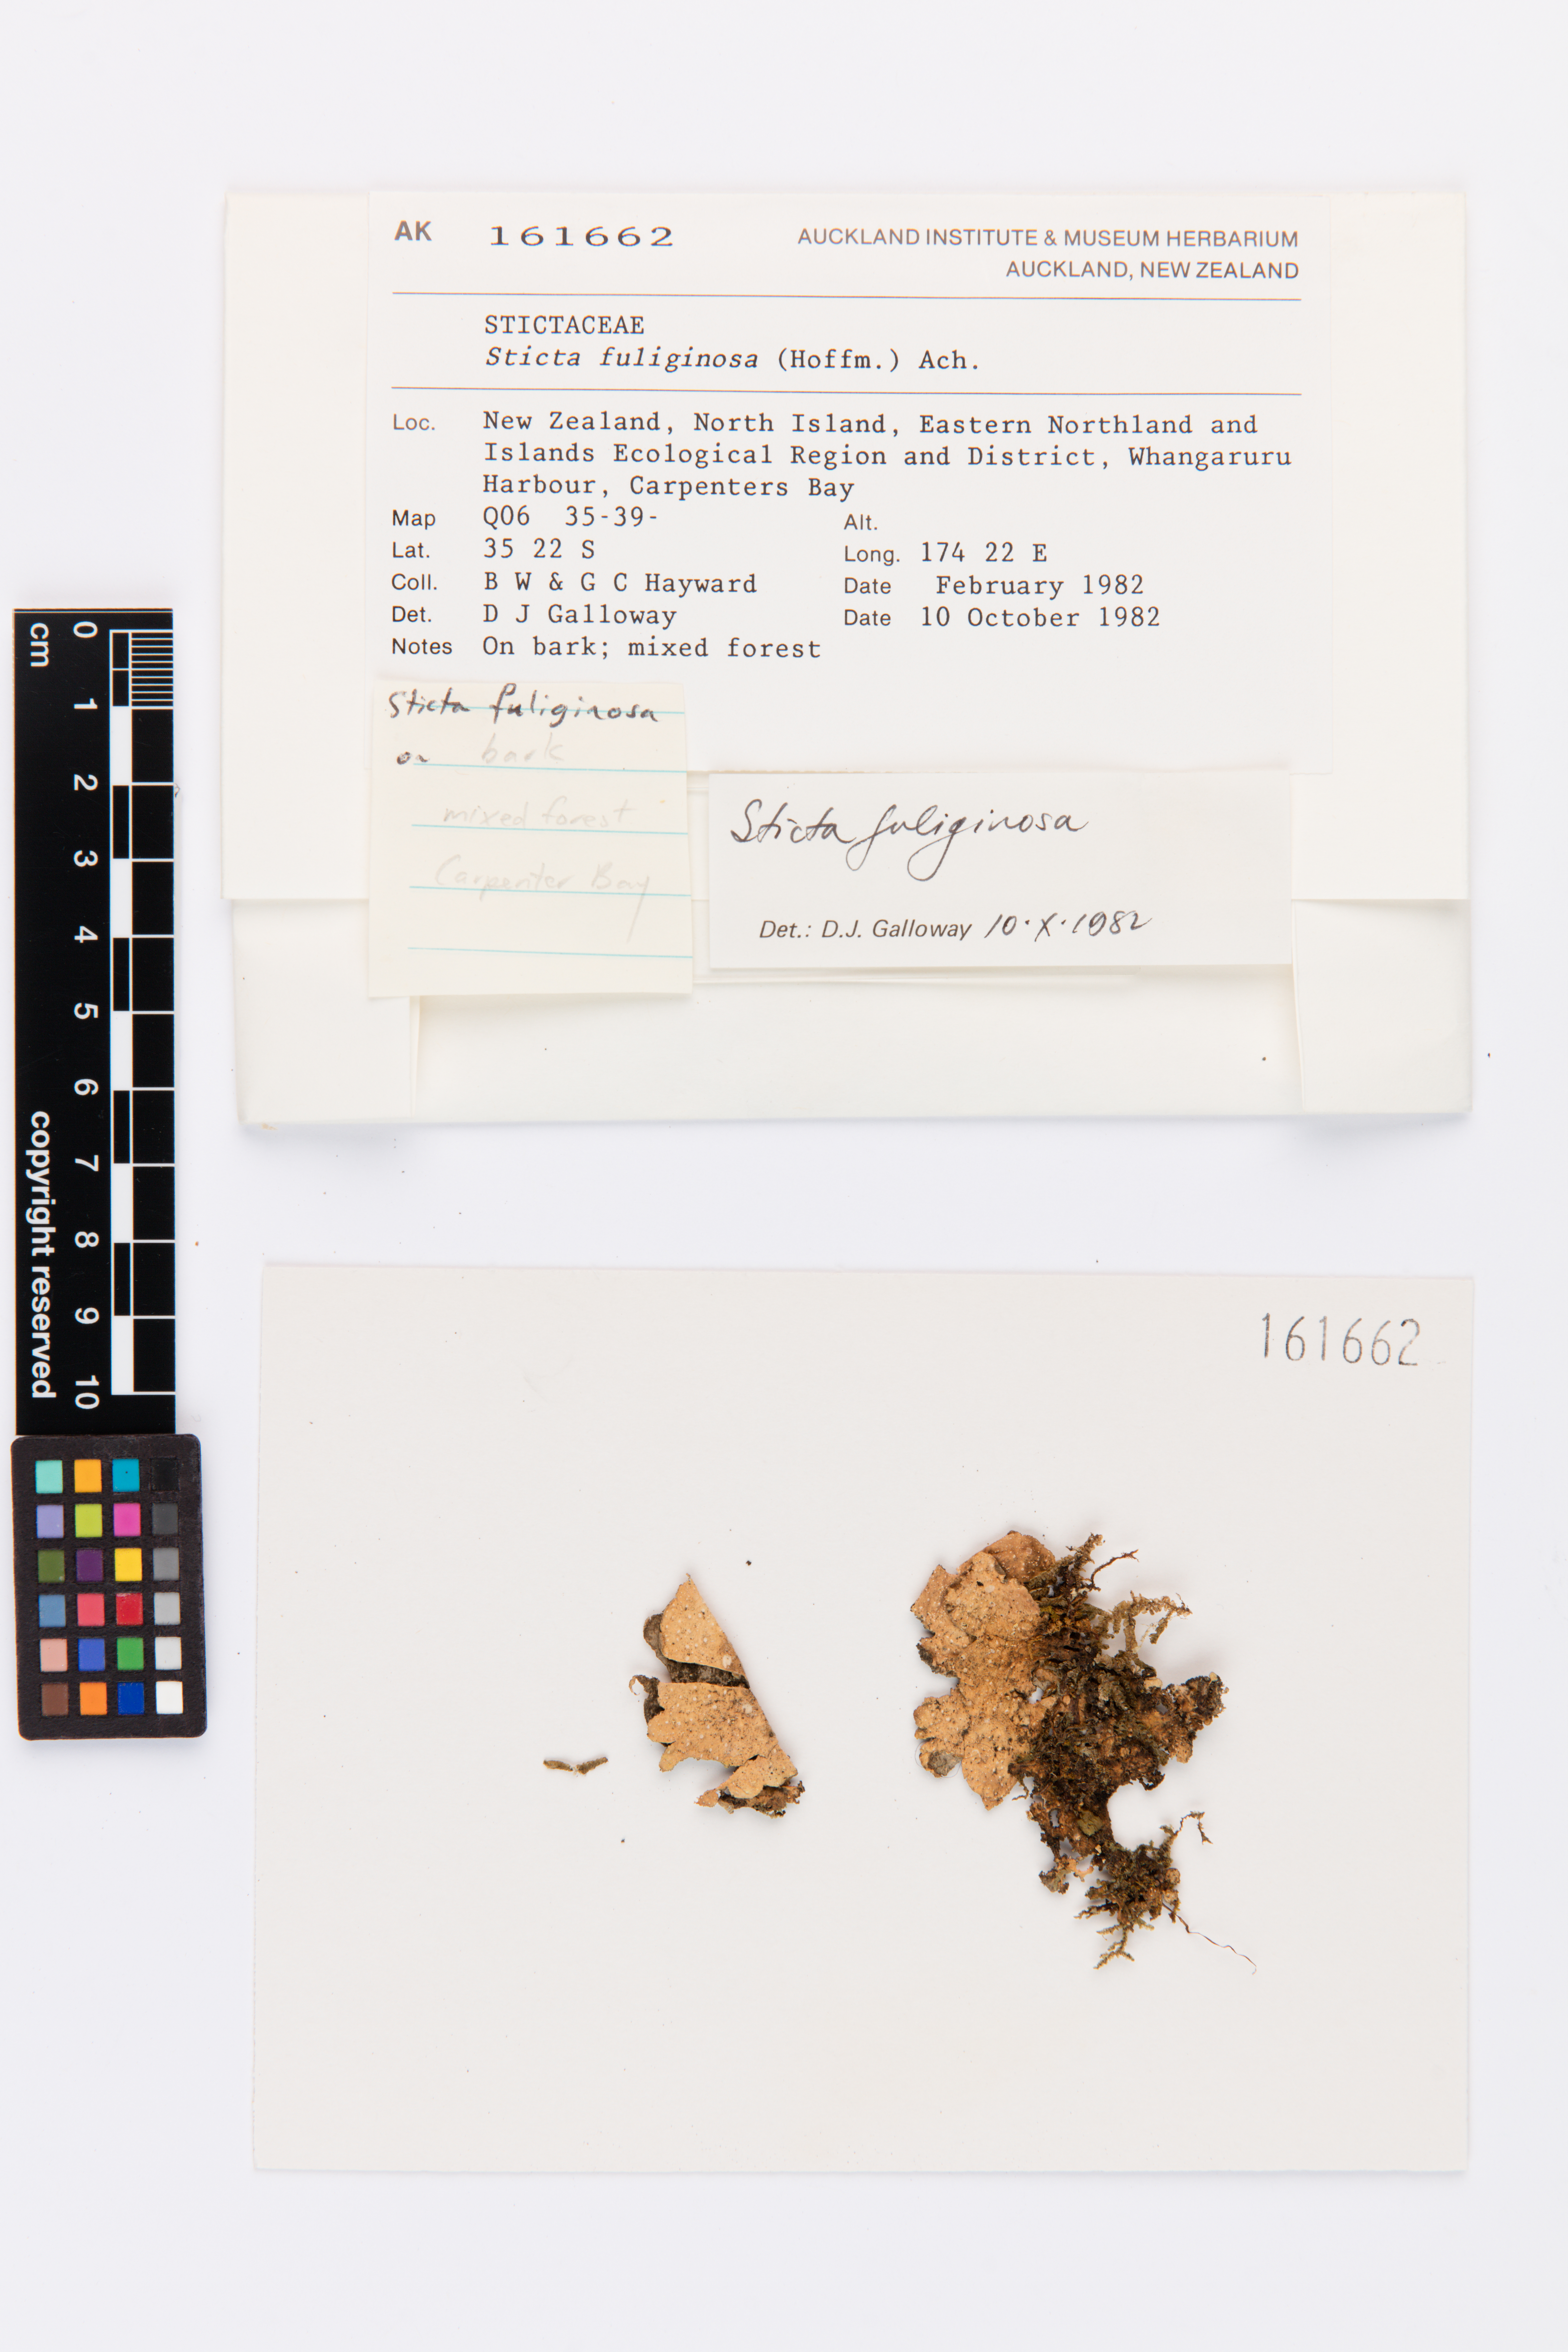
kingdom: Fungi
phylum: Ascomycota
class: Lecanoromycetes
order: Peltigerales
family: Lobariaceae
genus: Sticta
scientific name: Sticta fuliginosa
